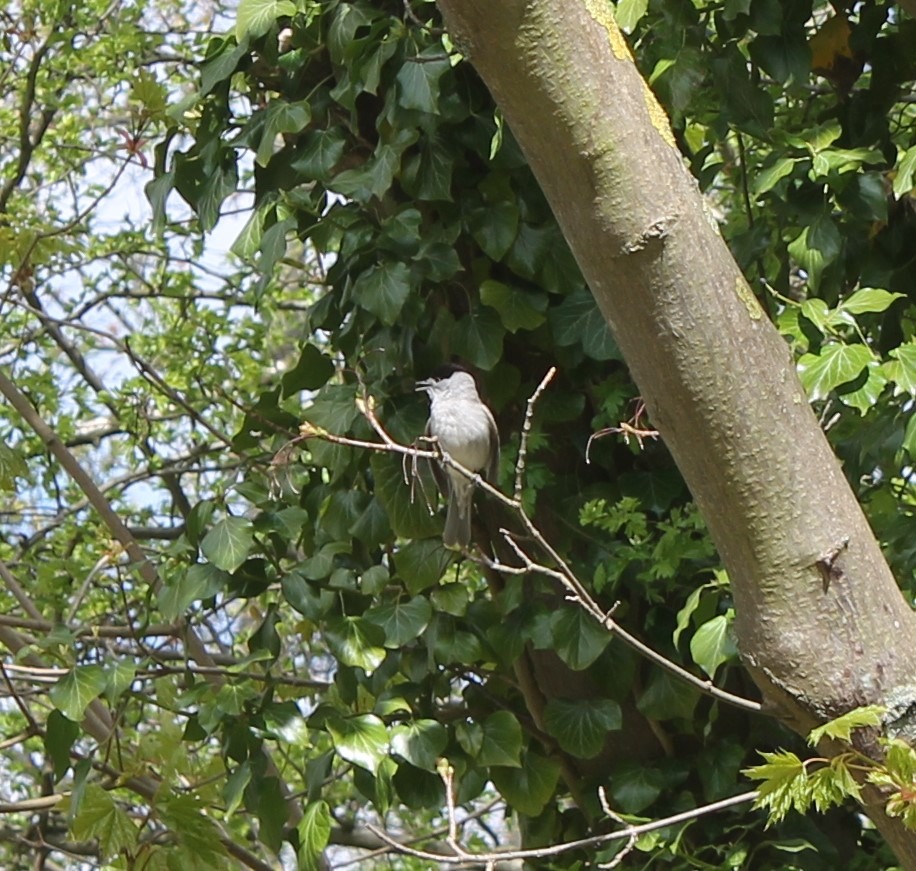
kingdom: Animalia
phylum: Chordata
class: Aves
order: Passeriformes
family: Sylviidae
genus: Sylvia
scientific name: Sylvia atricapilla
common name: Munk
